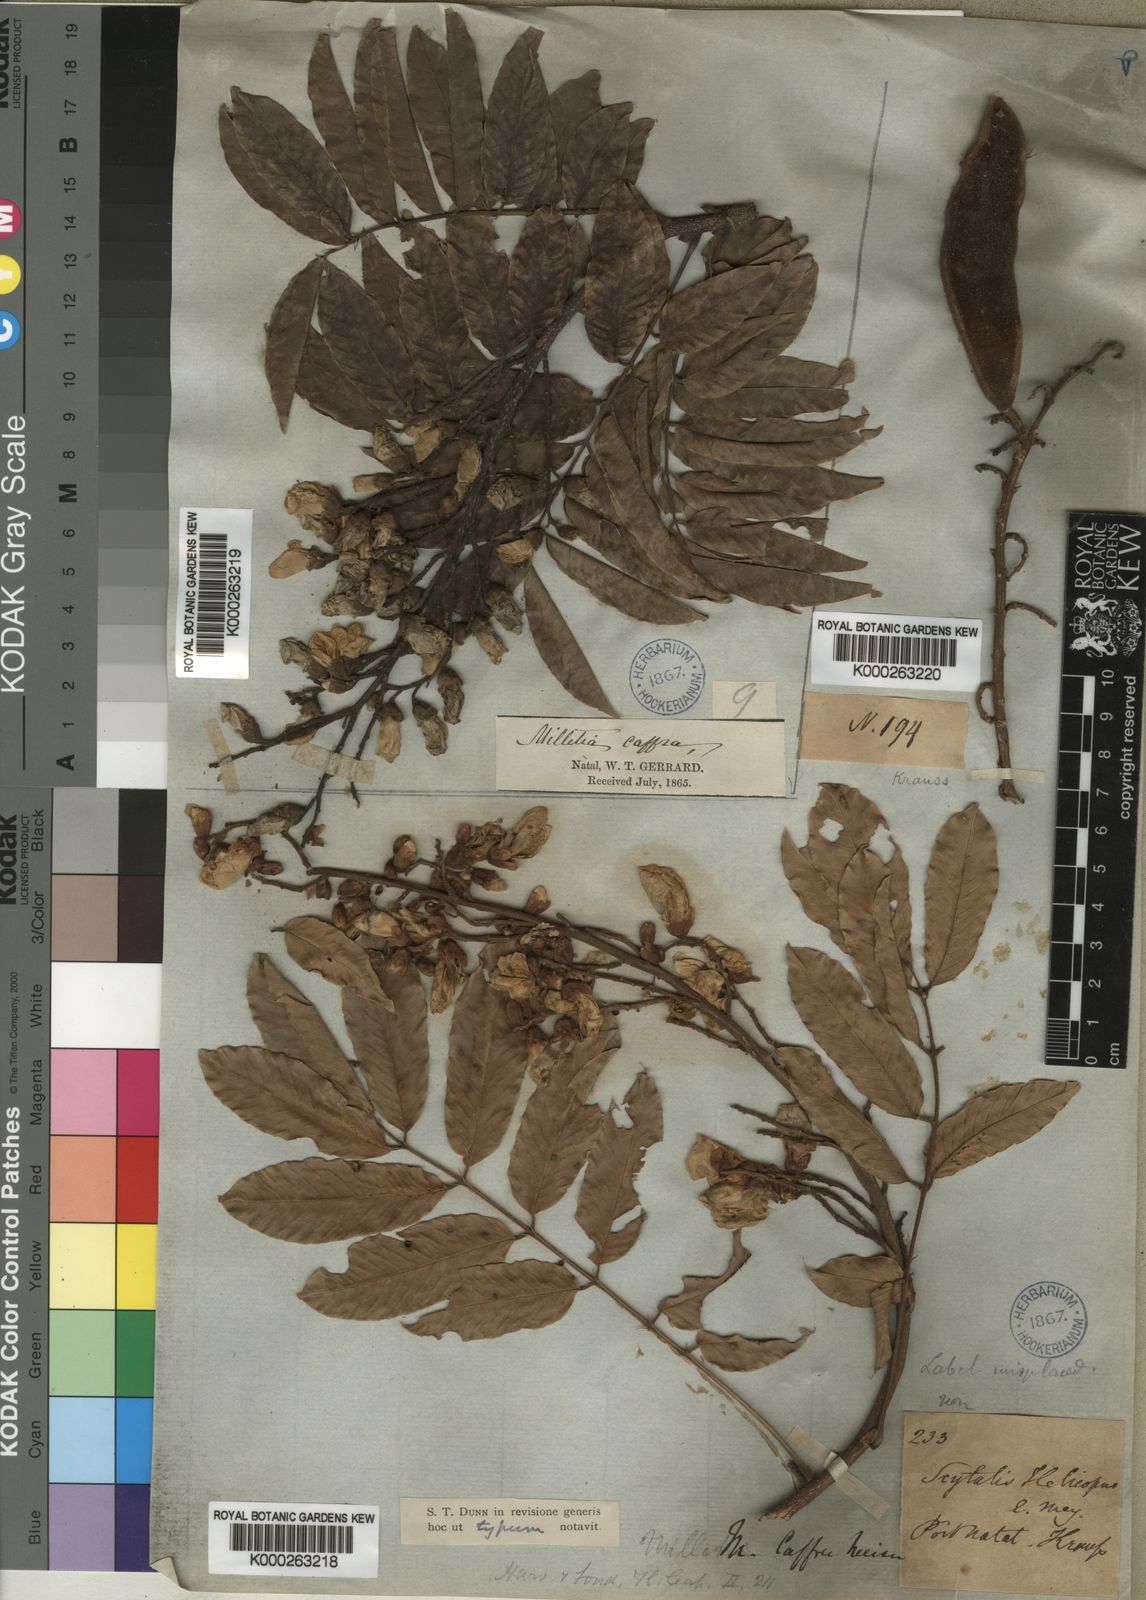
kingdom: Plantae
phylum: Tracheophyta
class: Magnoliopsida
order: Fabales
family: Fabaceae
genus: Millettia
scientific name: Millettia grandis
